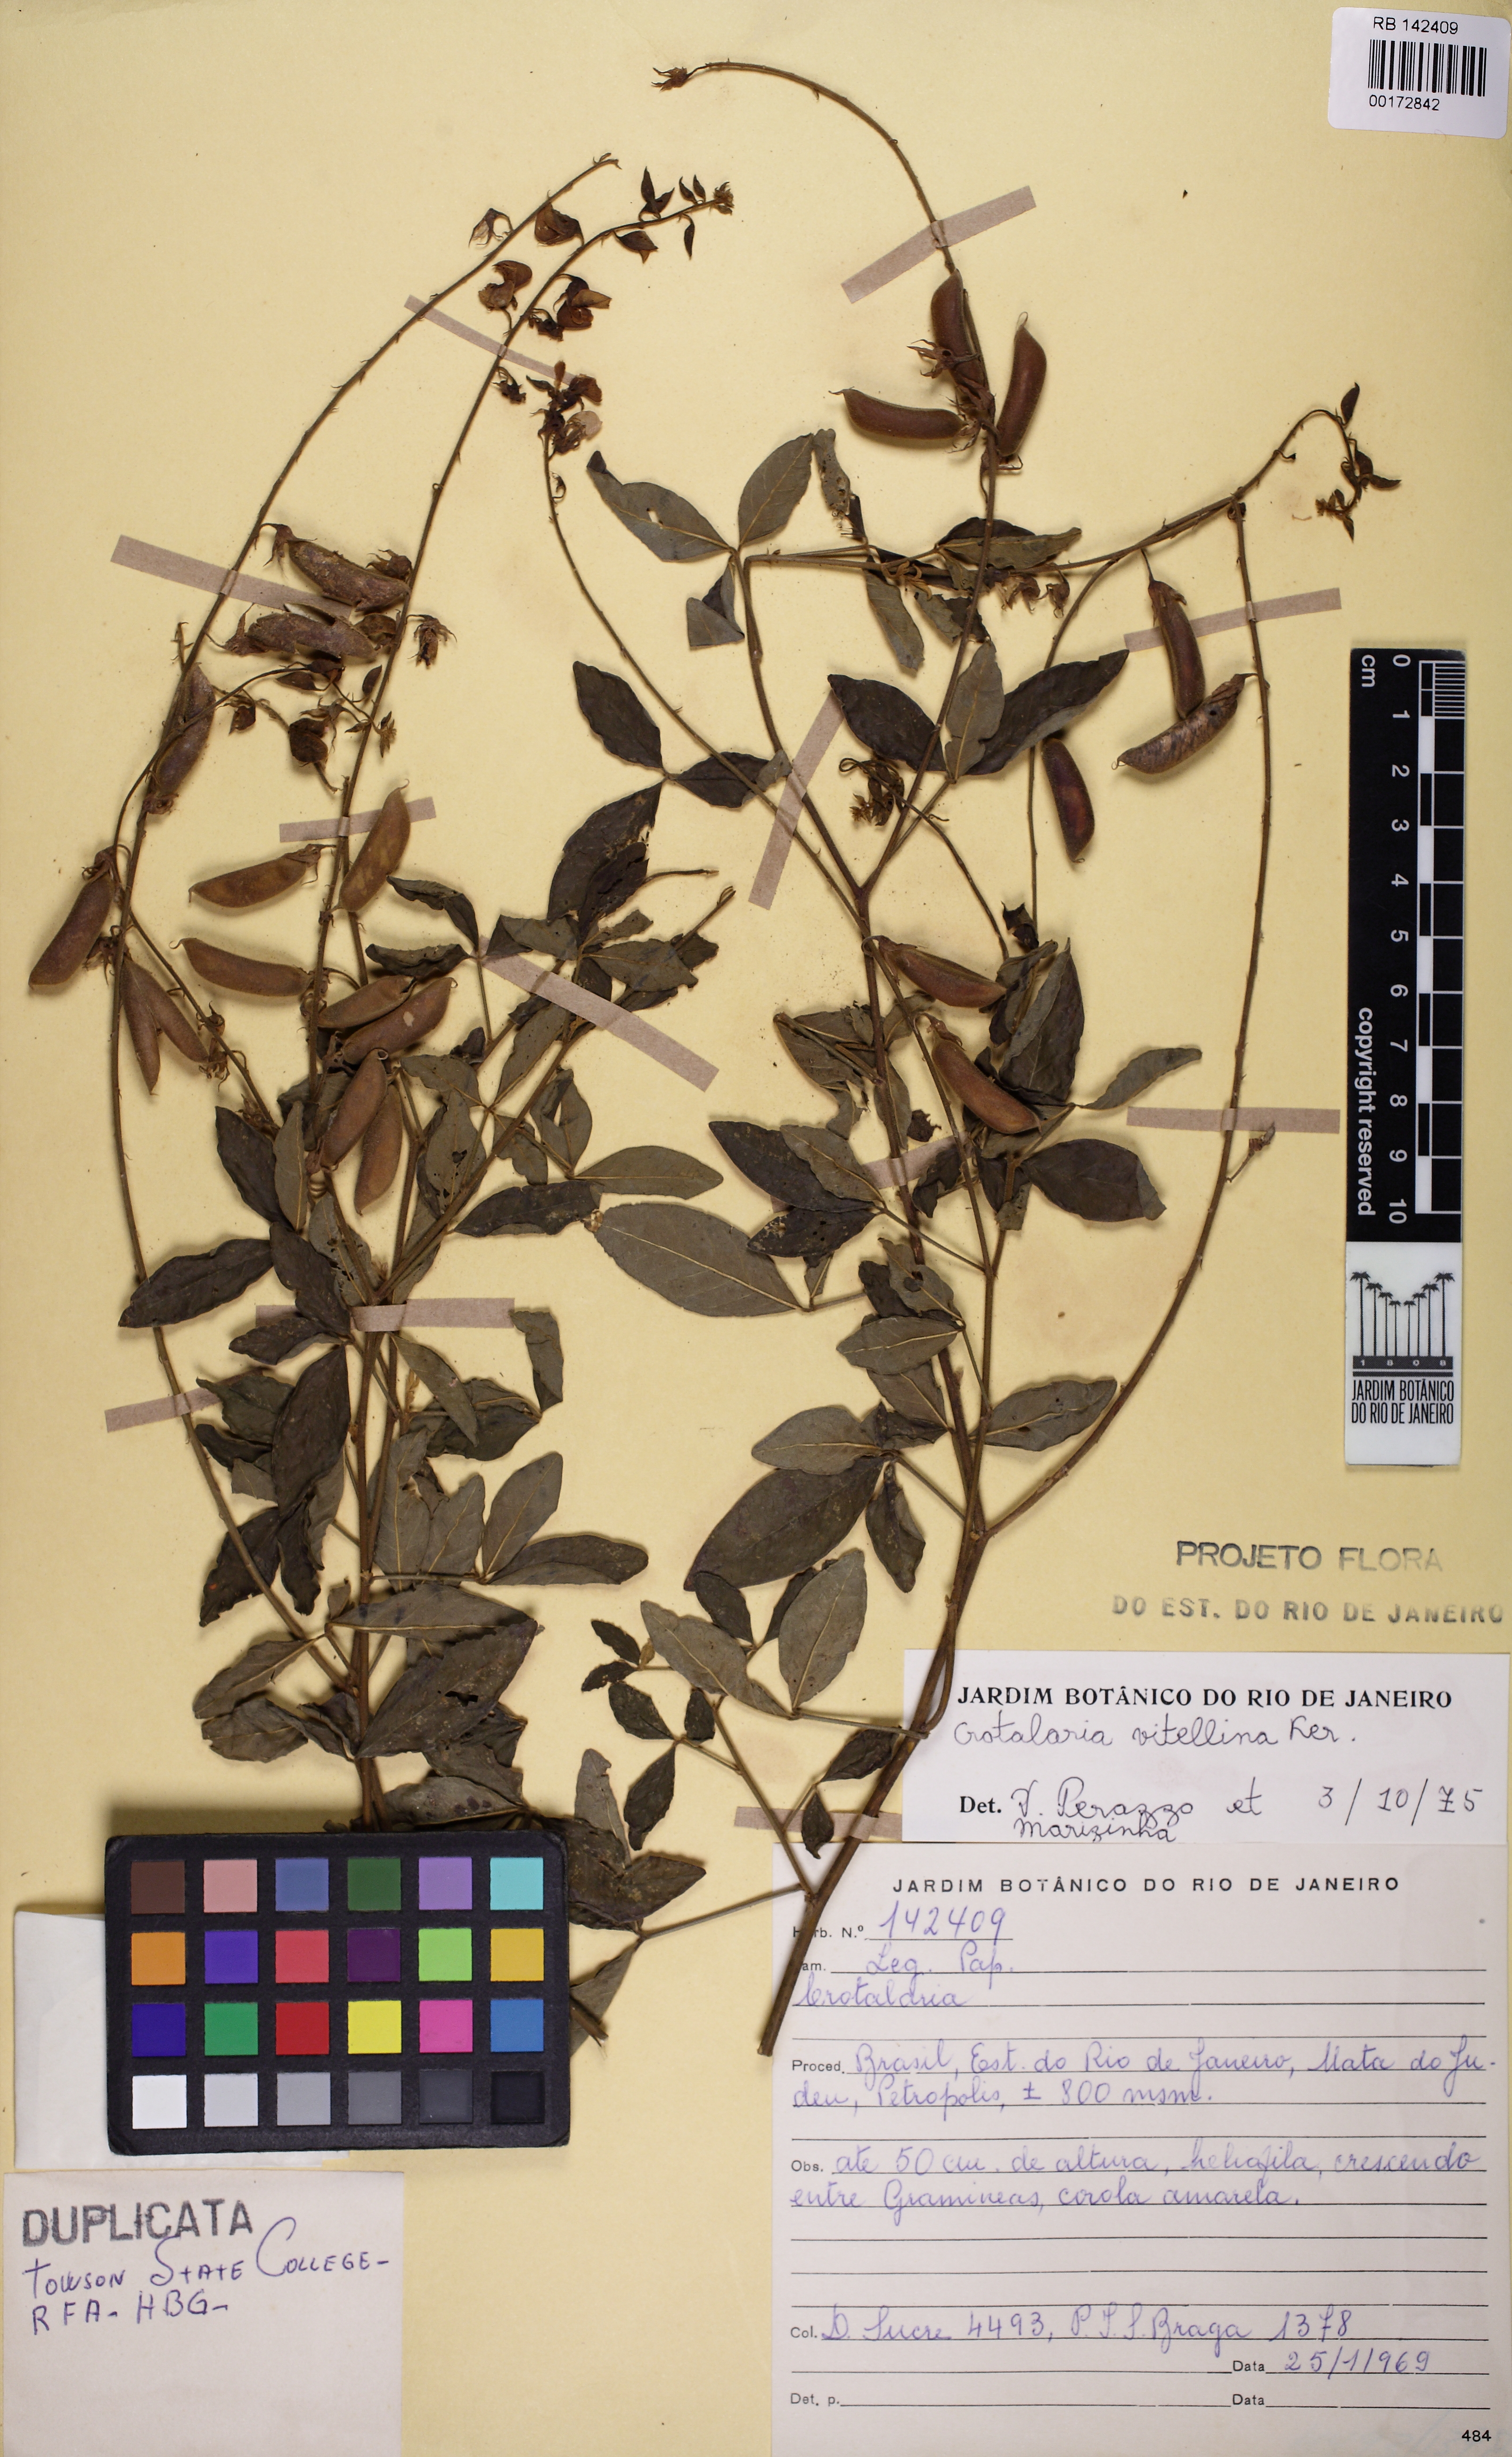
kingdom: Plantae
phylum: Tracheophyta
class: Magnoliopsida
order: Fabales
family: Fabaceae
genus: Crotalaria
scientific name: Crotalaria vitellina
